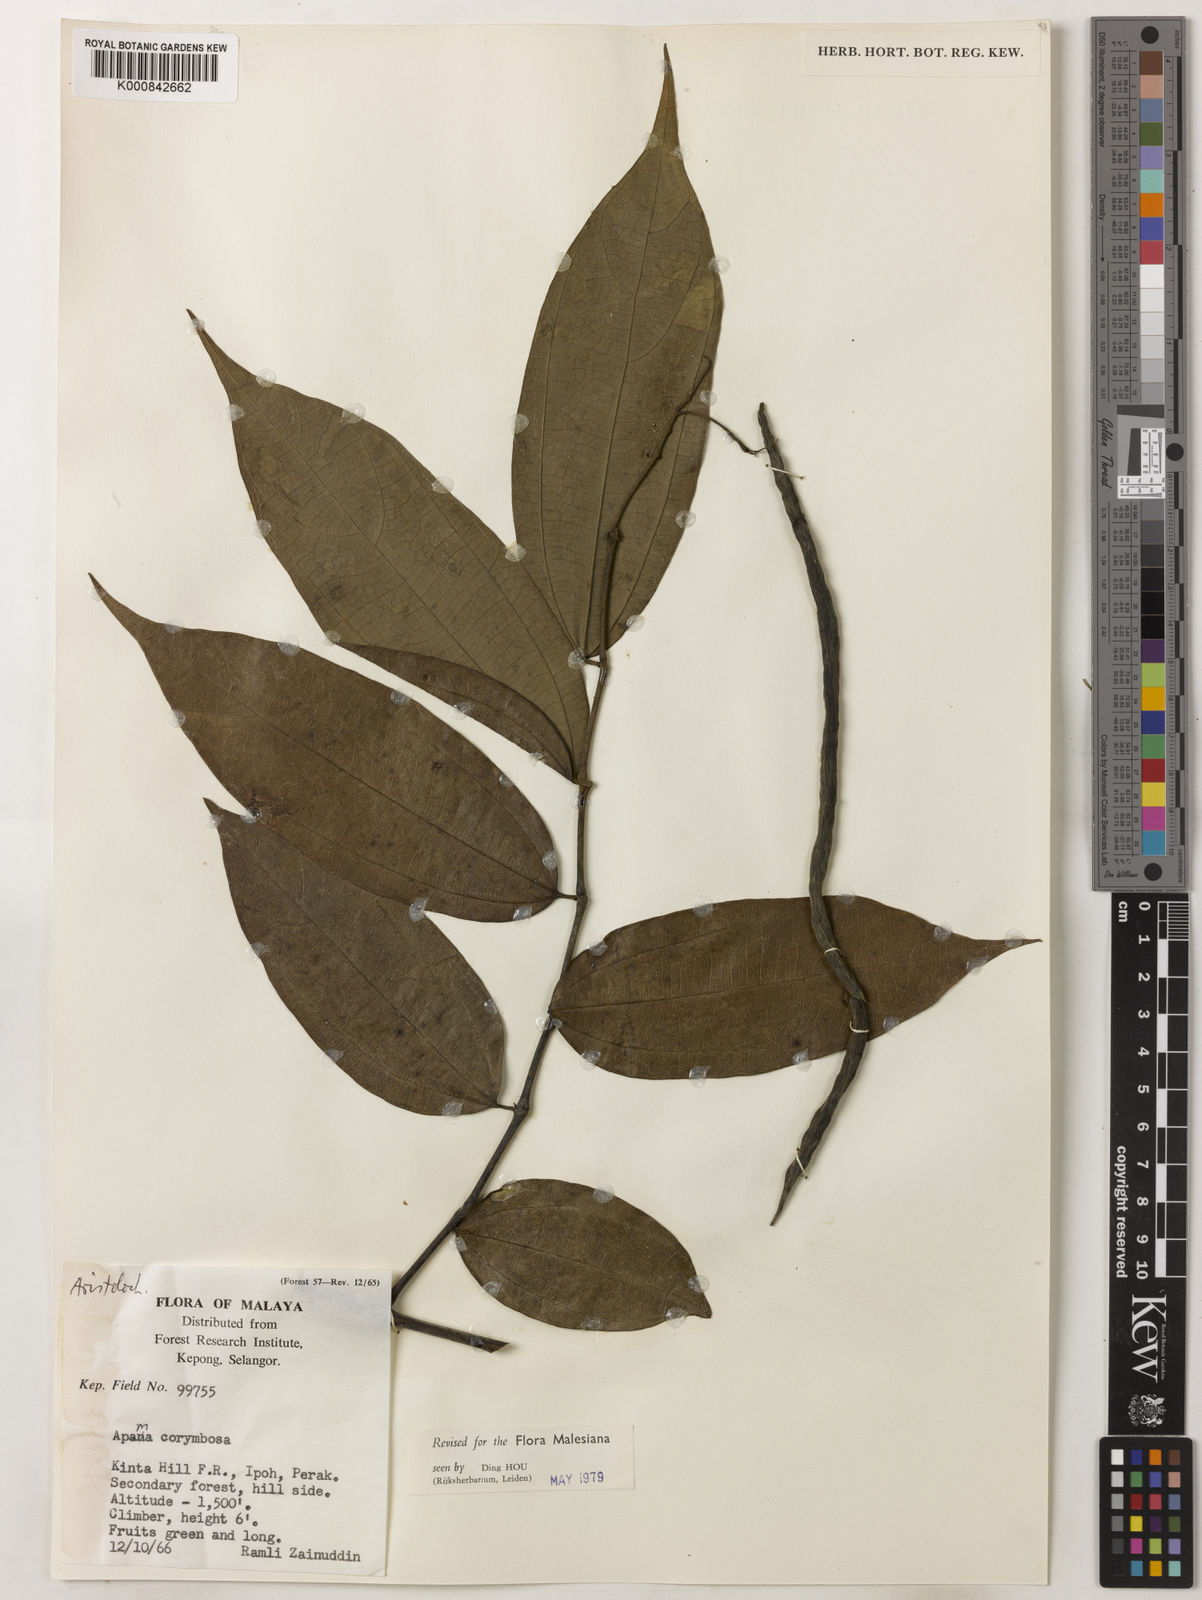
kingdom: Plantae
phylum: Tracheophyta
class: Magnoliopsida
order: Piperales
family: Aristolochiaceae
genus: Thottea
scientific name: Thottea piperiformis
